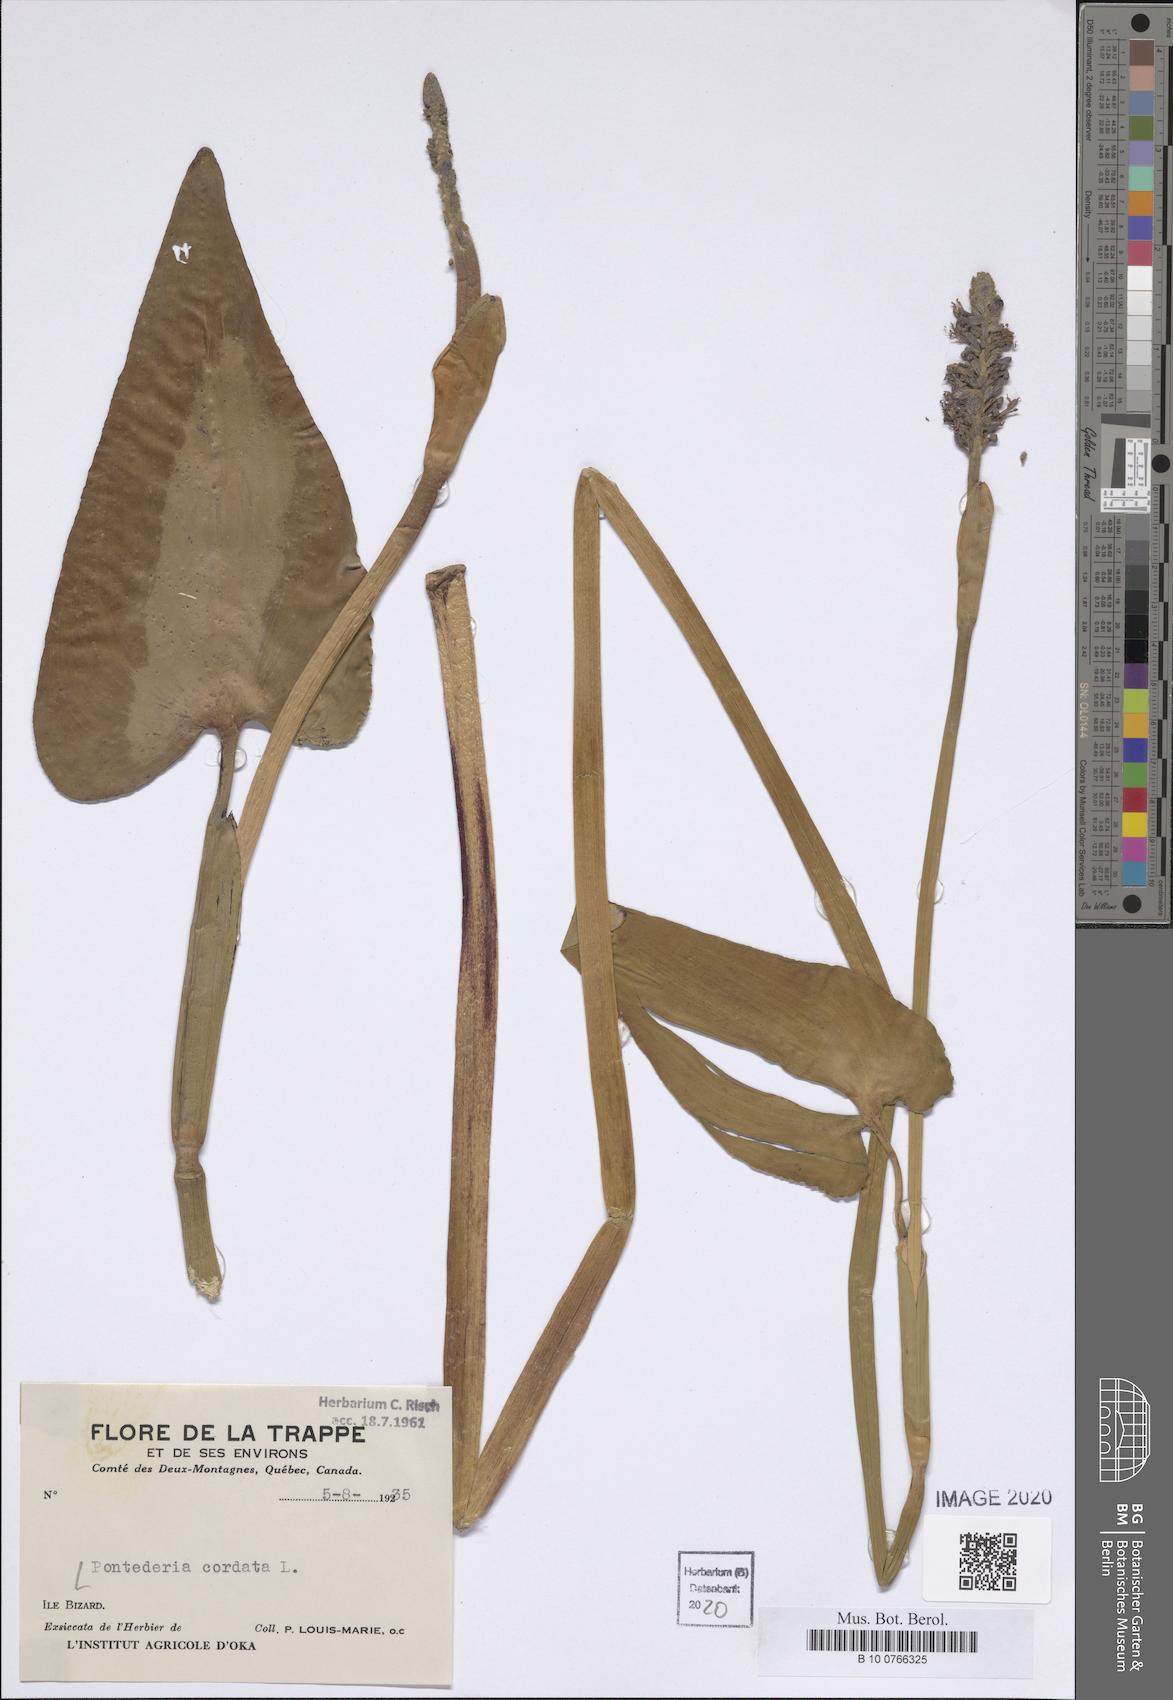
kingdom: Plantae
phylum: Tracheophyta
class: Liliopsida
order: Commelinales
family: Pontederiaceae
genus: Pontederia
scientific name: Pontederia cordata
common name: Pickerelweed
